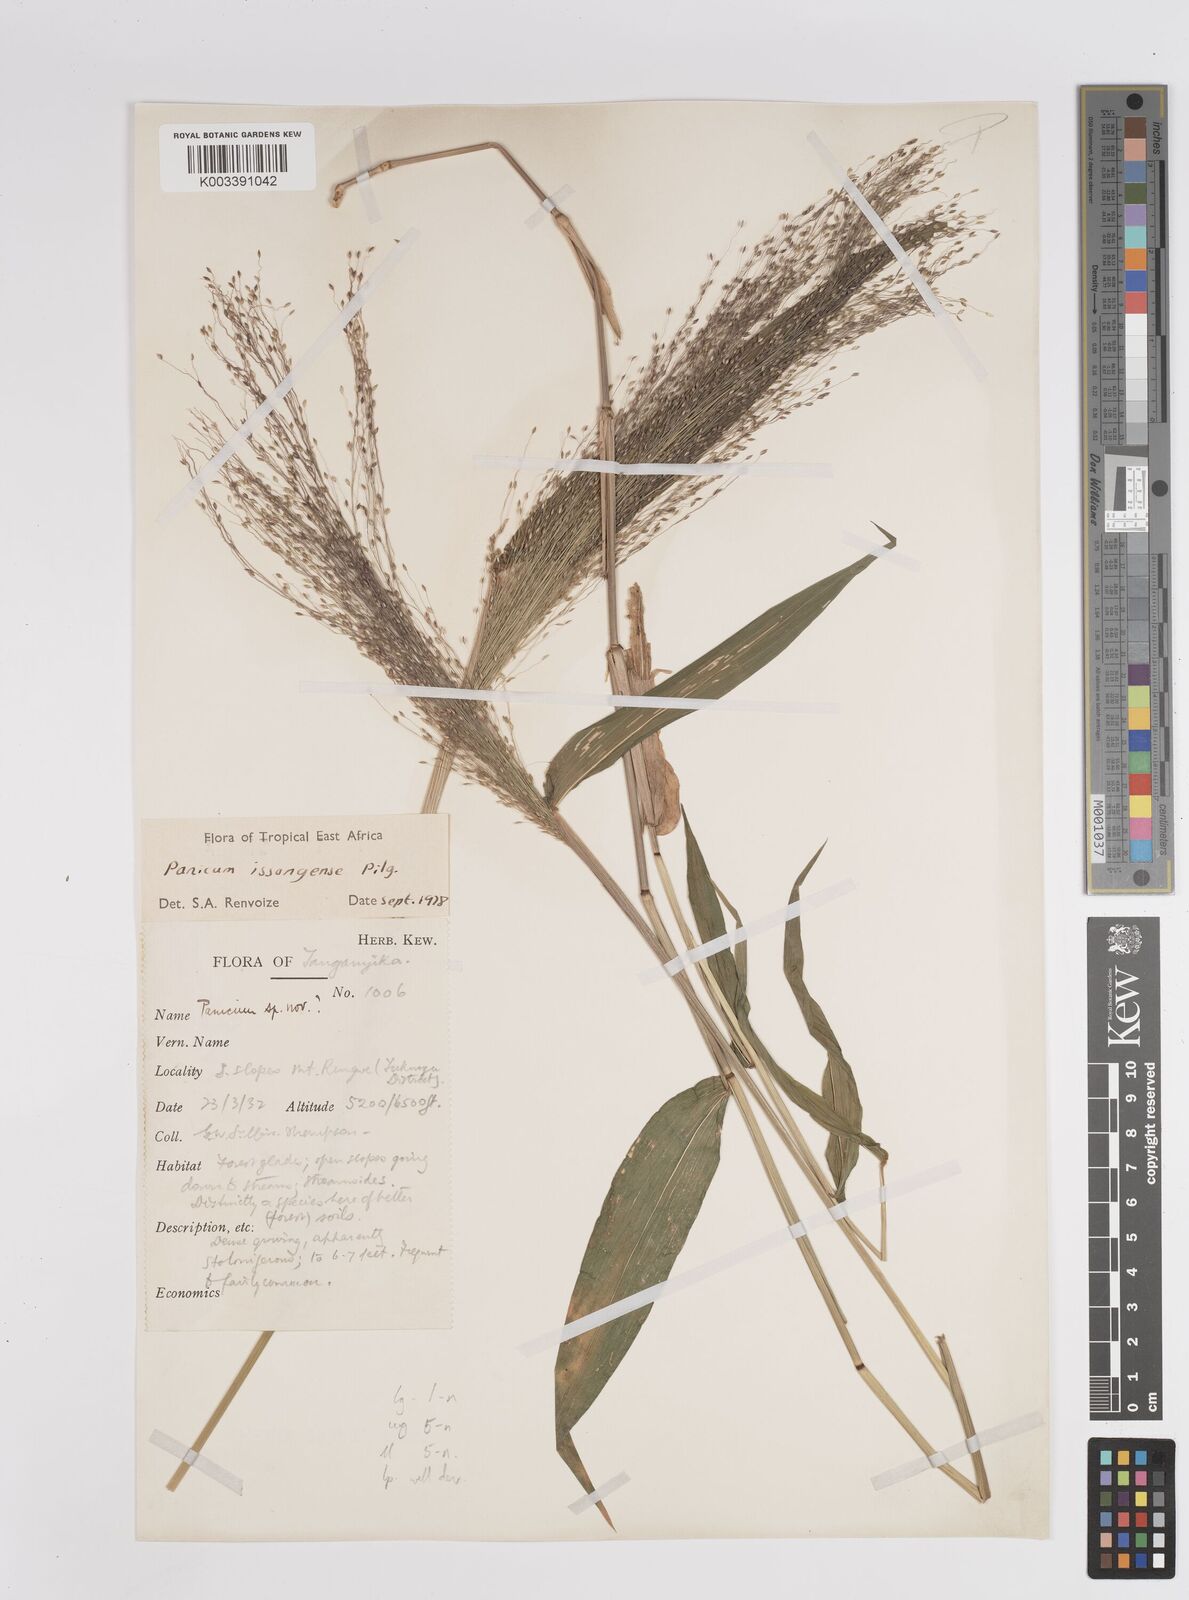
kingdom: Plantae
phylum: Tracheophyta
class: Liliopsida
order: Poales
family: Poaceae
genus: Panicum
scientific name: Panicum issongense
